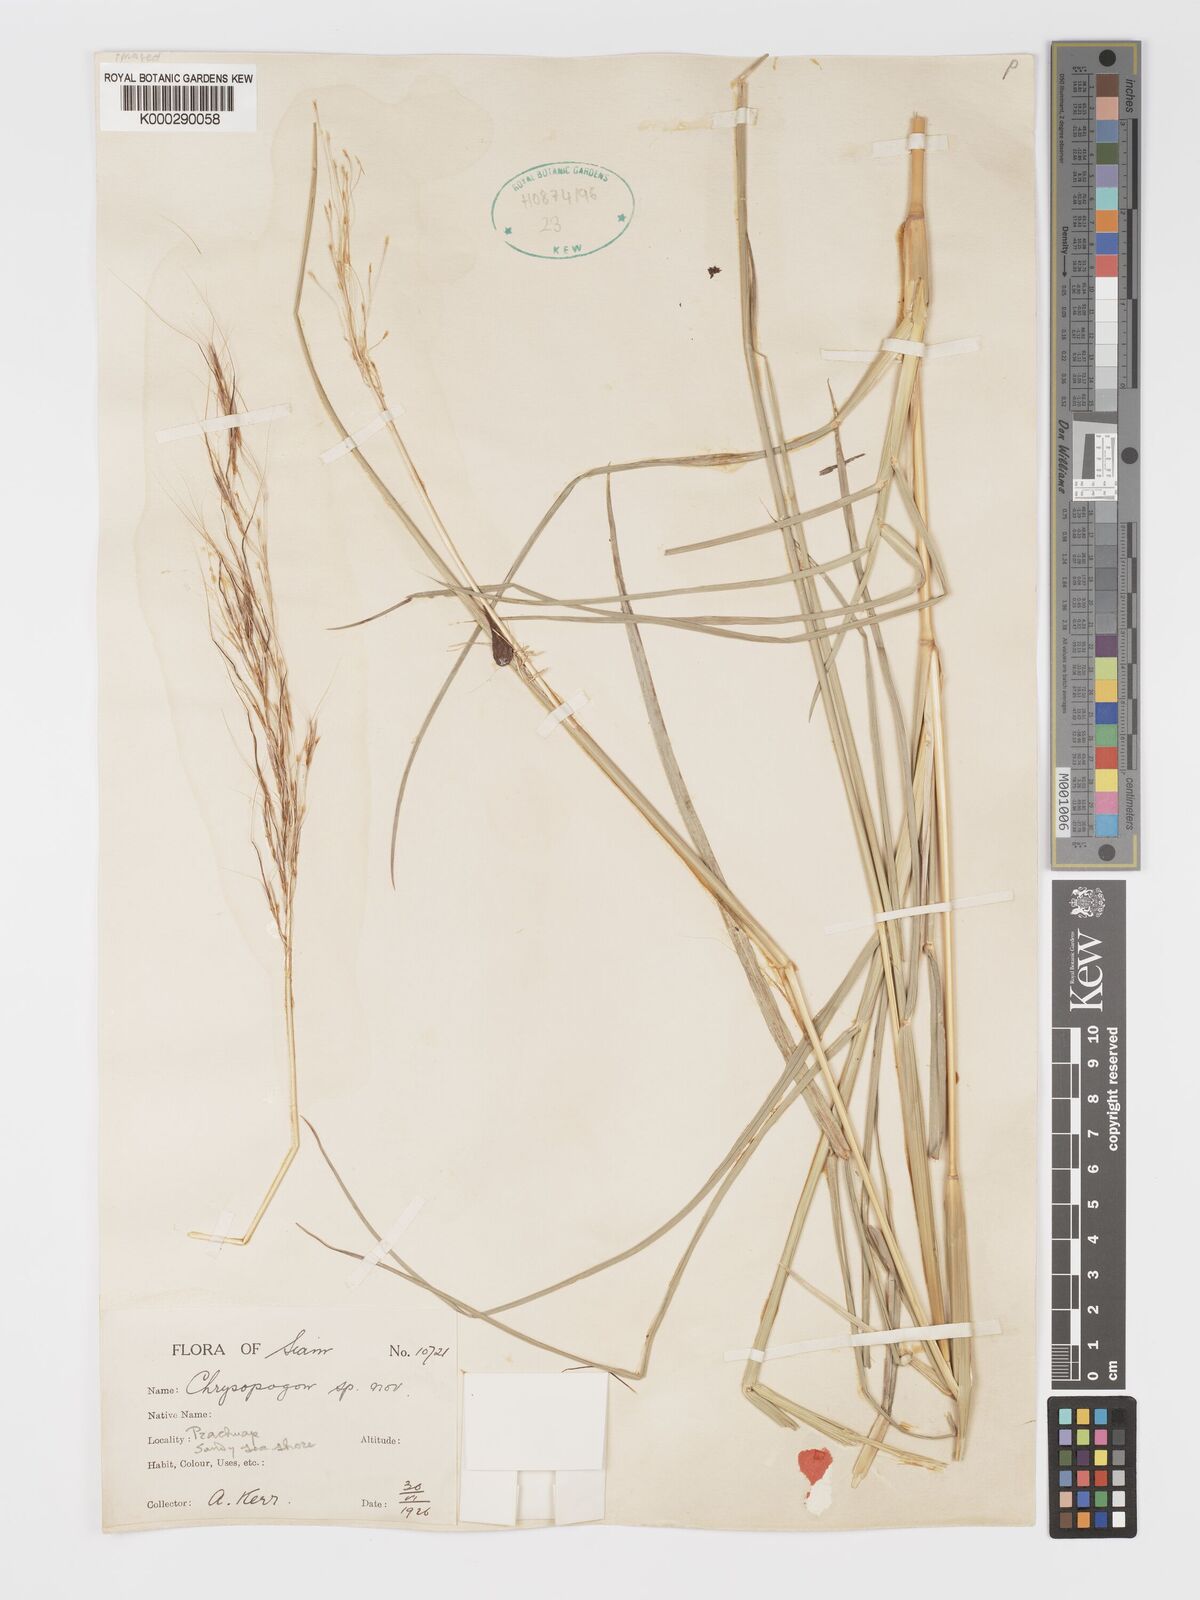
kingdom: Plantae
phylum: Tracheophyta
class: Liliopsida
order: Poales
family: Poaceae
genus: Chrysopogon
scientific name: Chrysopogon orientalis
